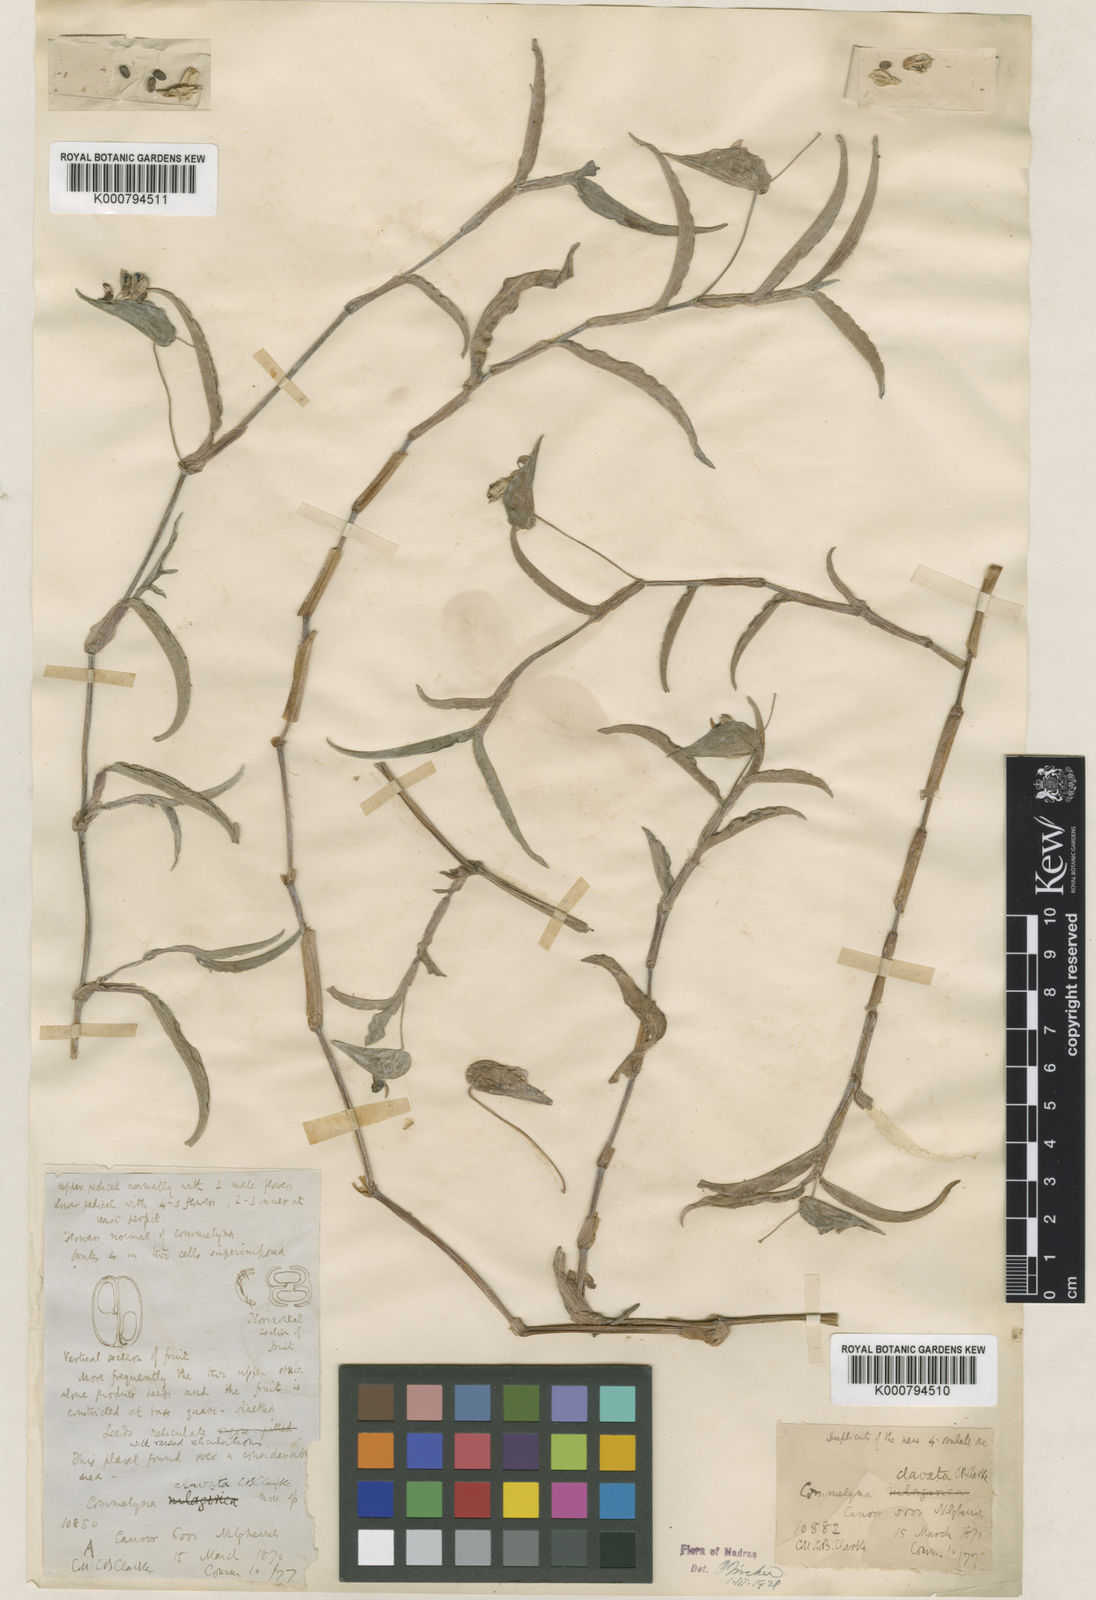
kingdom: Plantae
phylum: Tracheophyta
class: Liliopsida
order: Commelinales
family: Commelinaceae
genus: Commelina
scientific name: Commelina clavata
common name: Willow leaved dayflower
